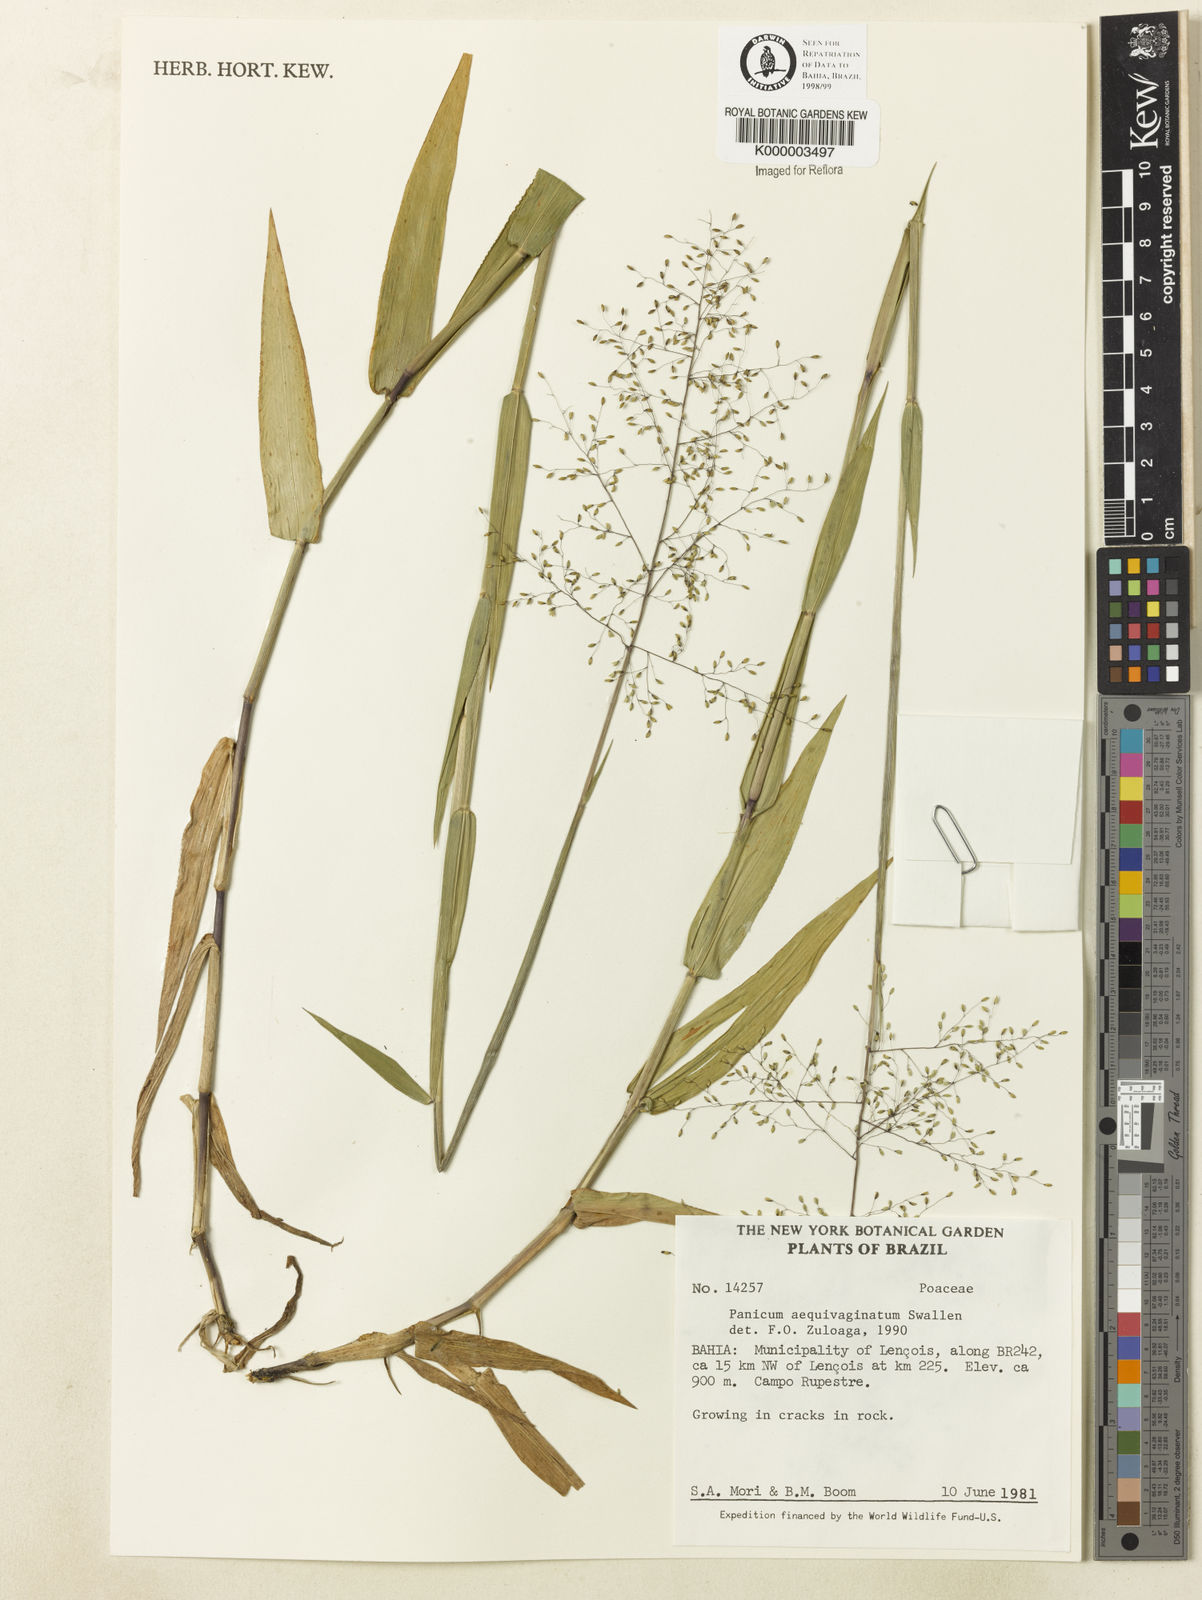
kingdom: Plantae
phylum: Tracheophyta
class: Liliopsida
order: Poales
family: Poaceae
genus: Dichanthelium
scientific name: Dichanthelium aequivaginatum
